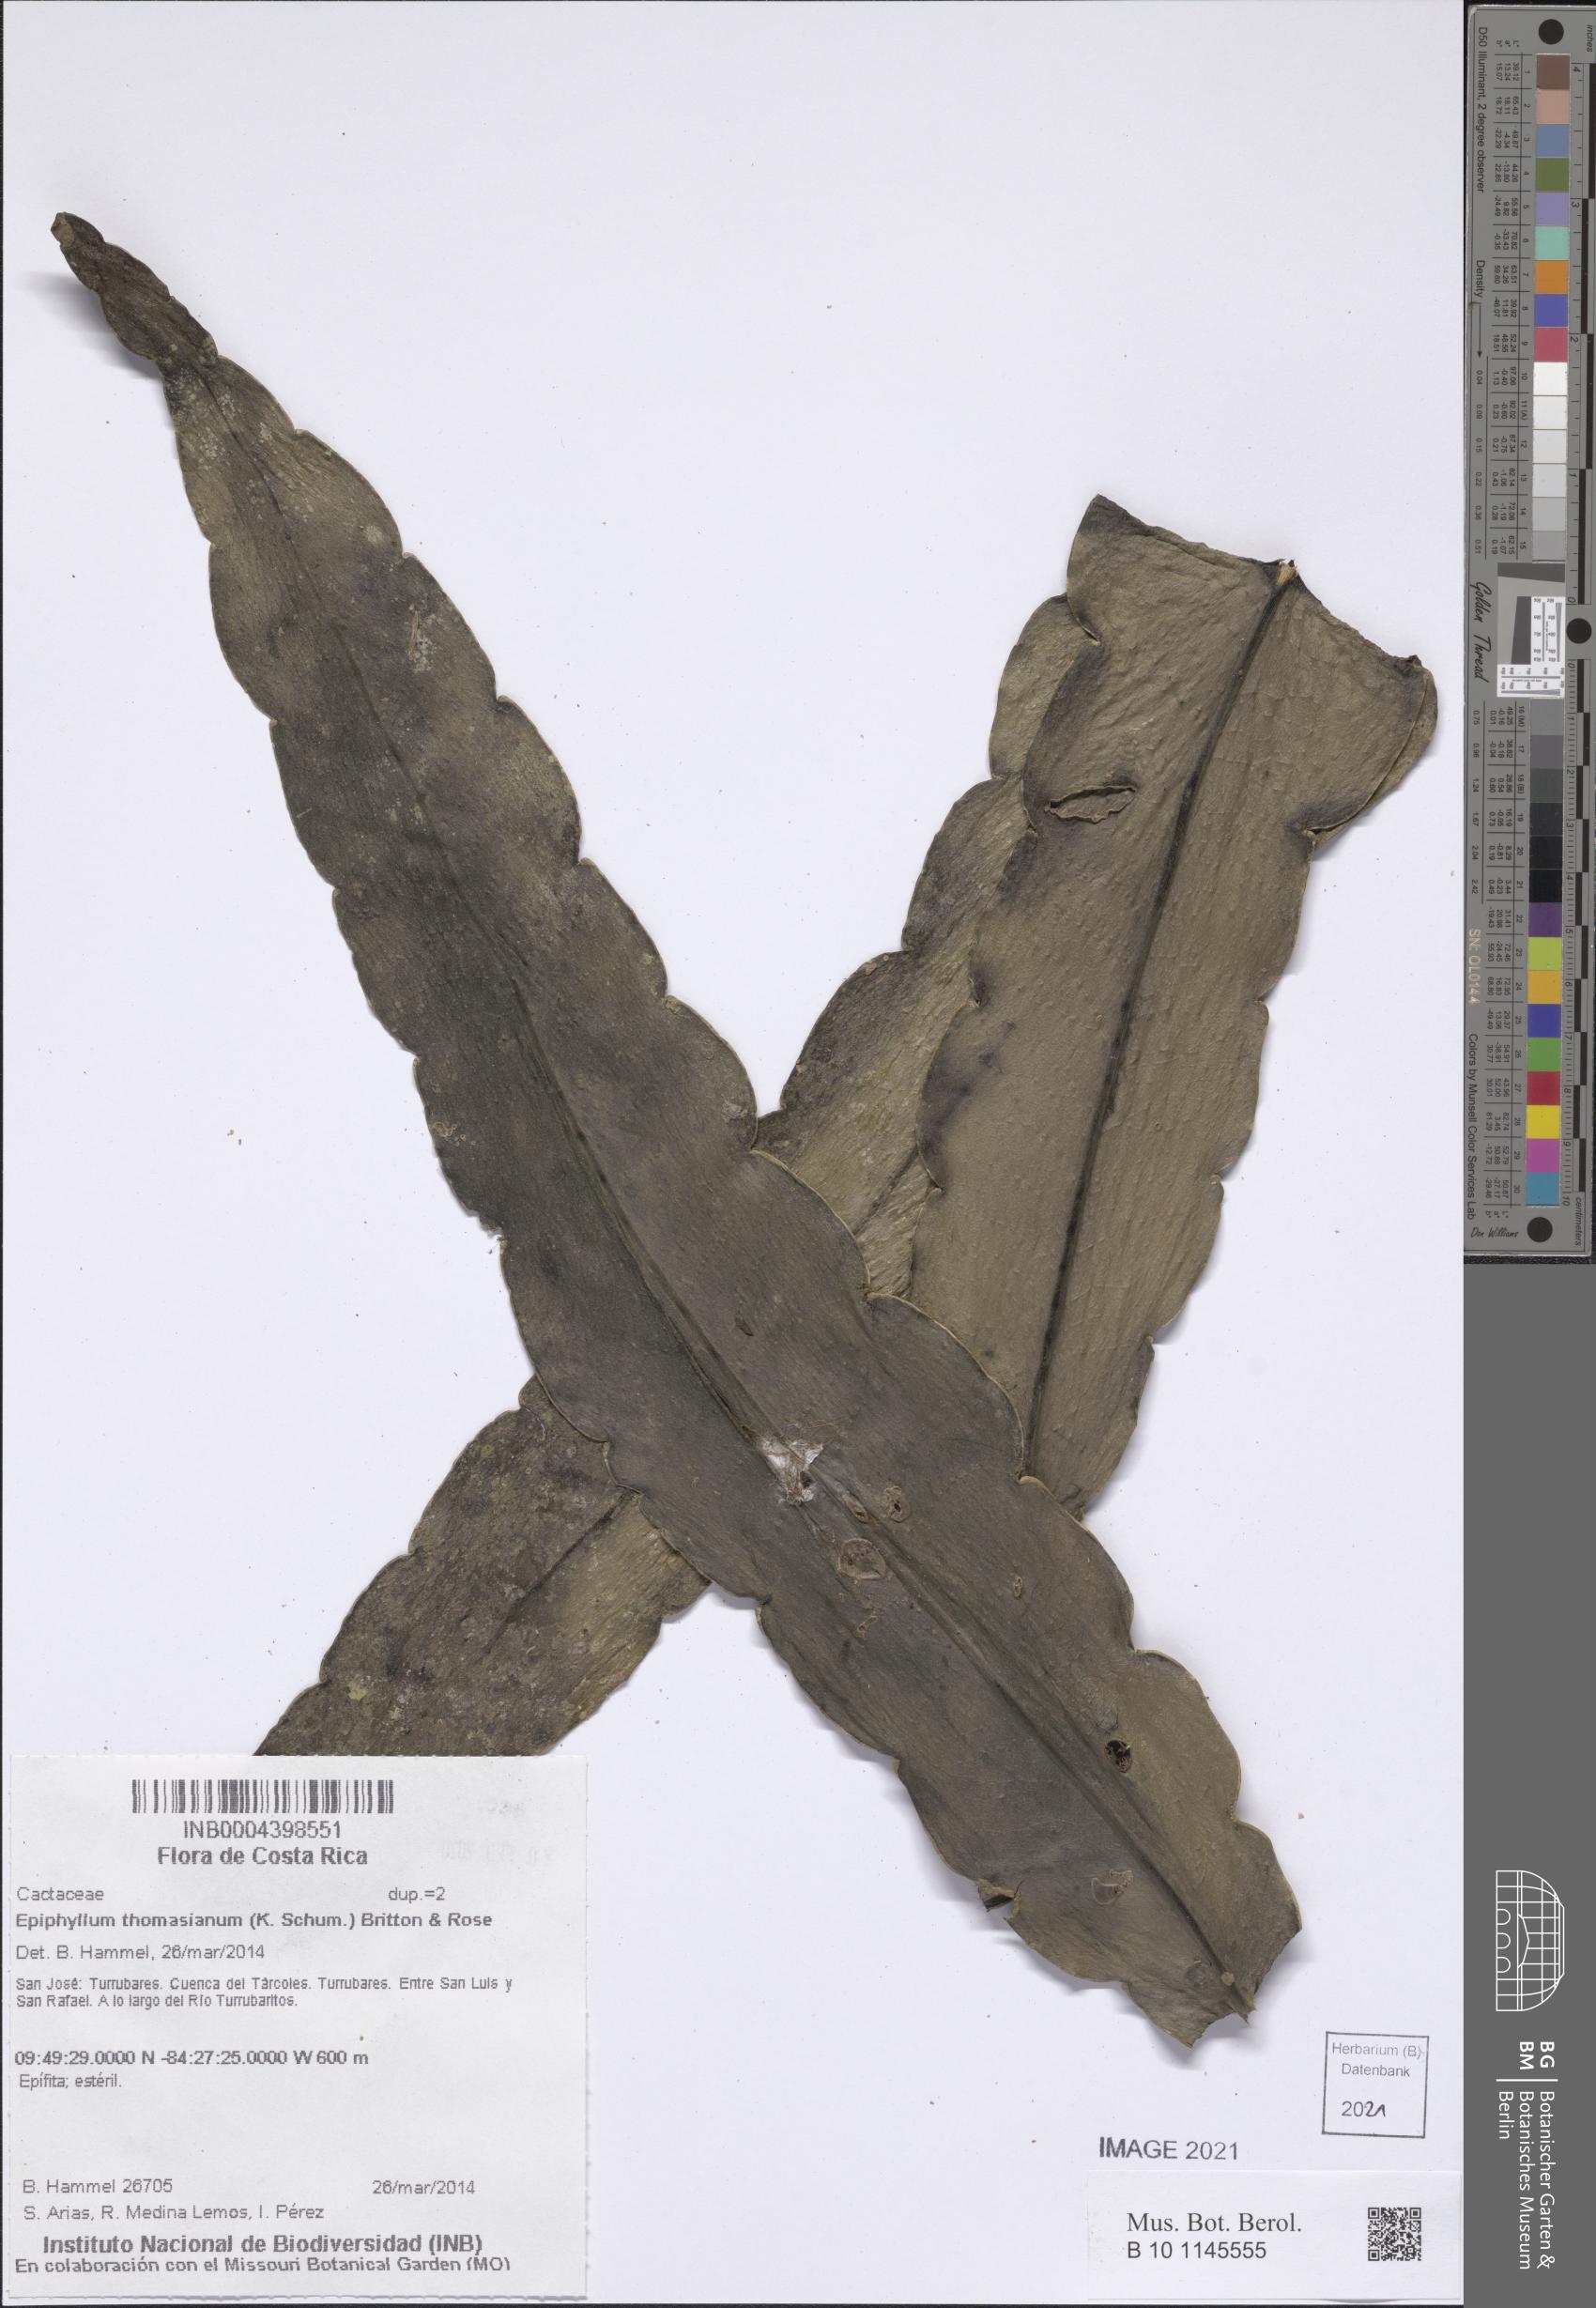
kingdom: Plantae
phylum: Tracheophyta
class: Magnoliopsida
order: Caryophyllales
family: Cactaceae
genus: Epiphyllum
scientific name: Epiphyllum thomasianum
